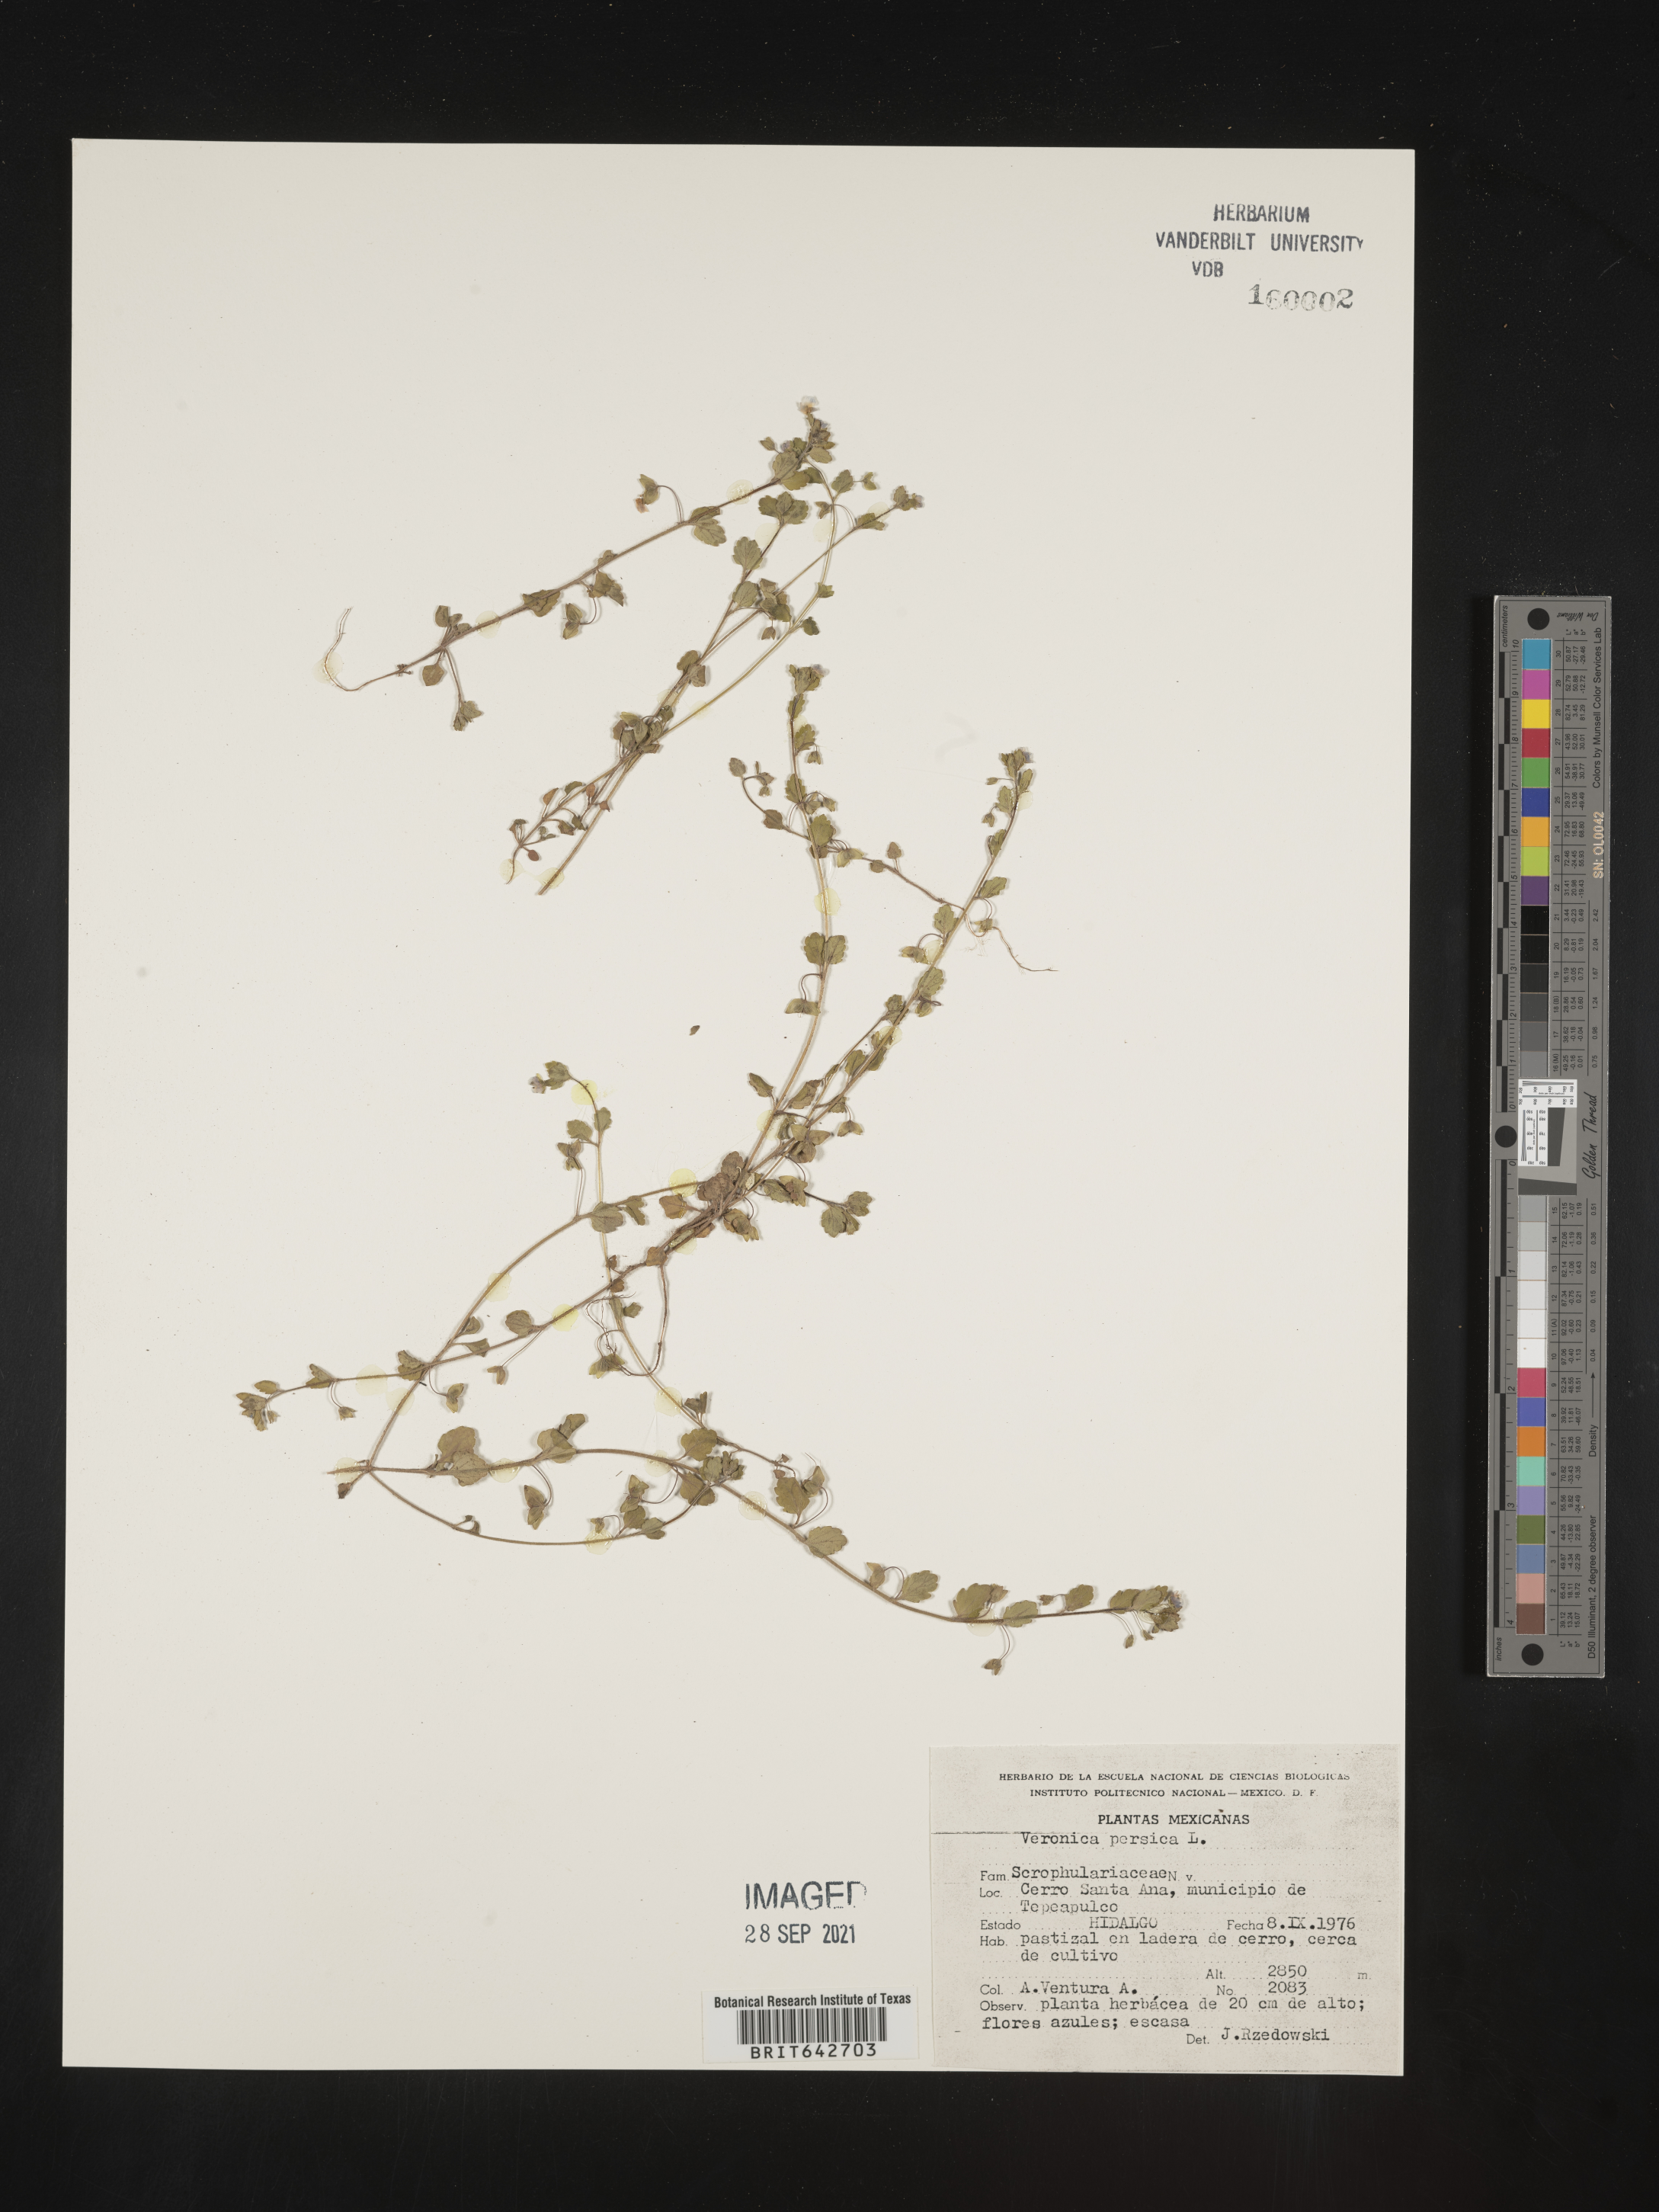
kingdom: Plantae
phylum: Tracheophyta
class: Magnoliopsida
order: Lamiales
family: Plantaginaceae
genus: Veronica
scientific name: Veronica
